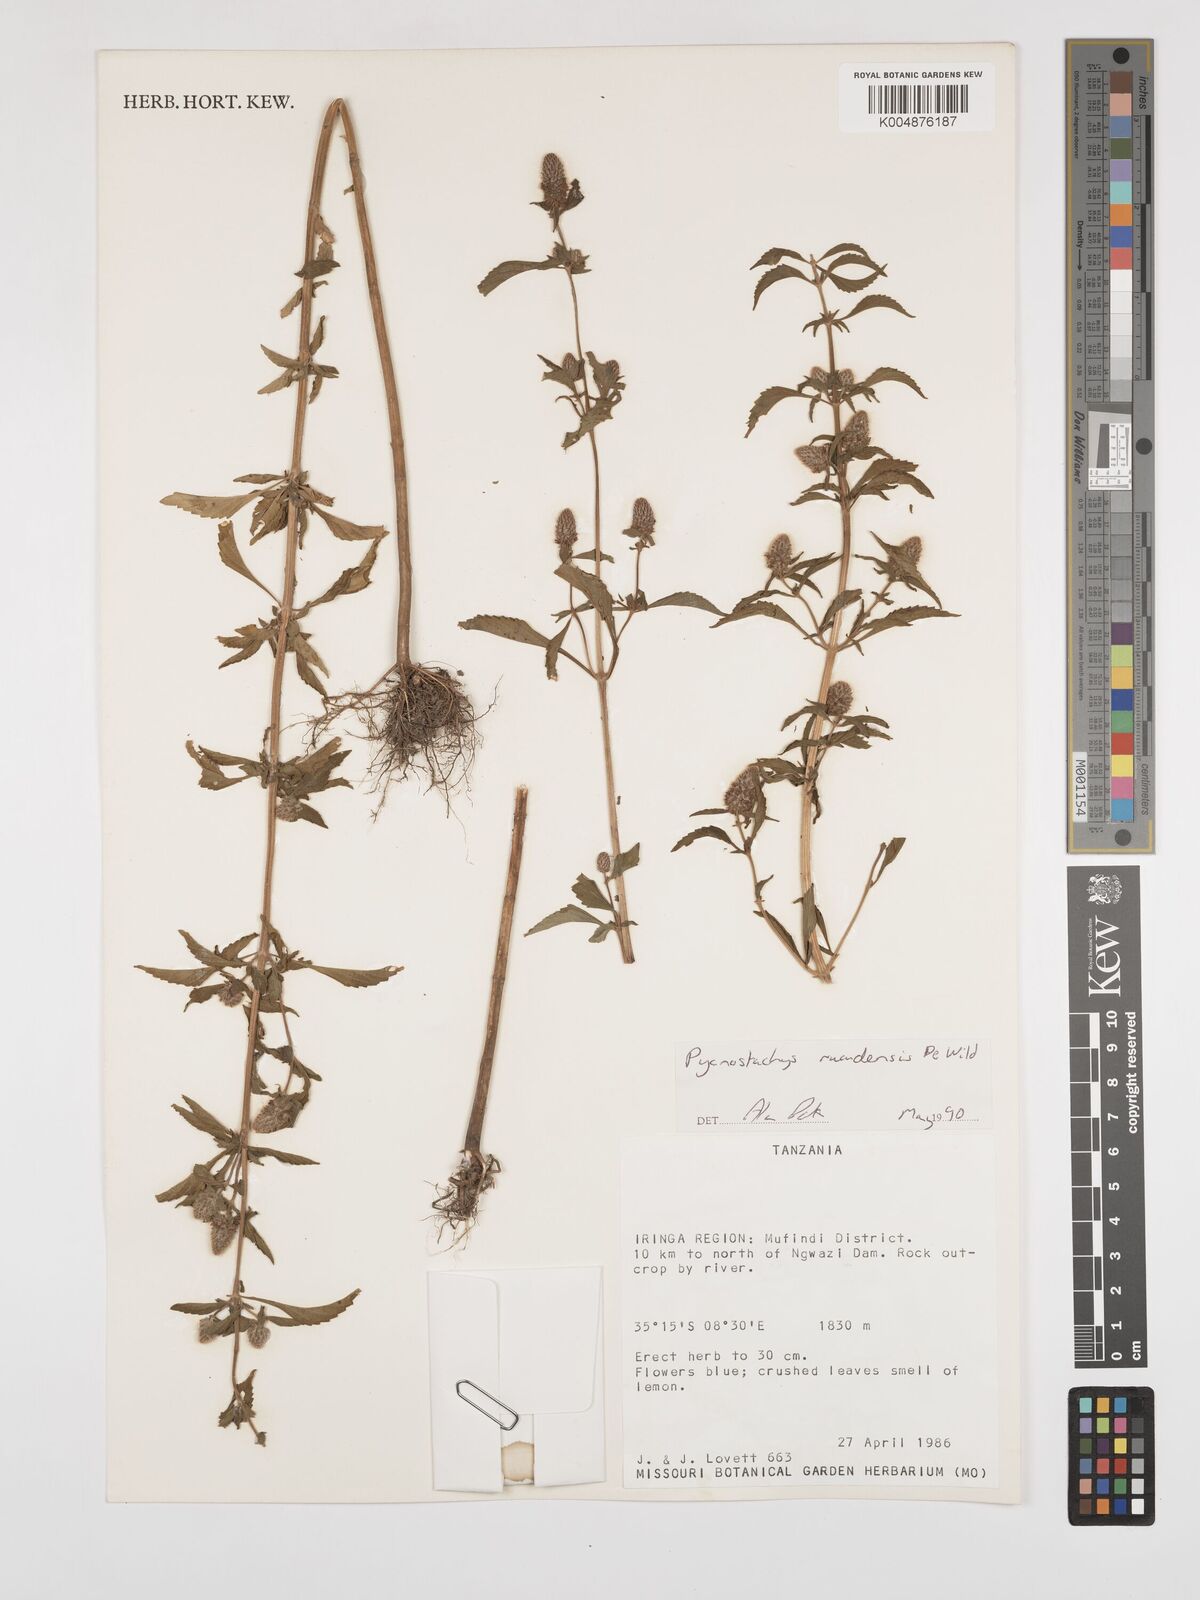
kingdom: Plantae
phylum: Tracheophyta
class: Magnoliopsida
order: Lamiales
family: Lamiaceae
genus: Coleus
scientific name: Coleus ruandensis
